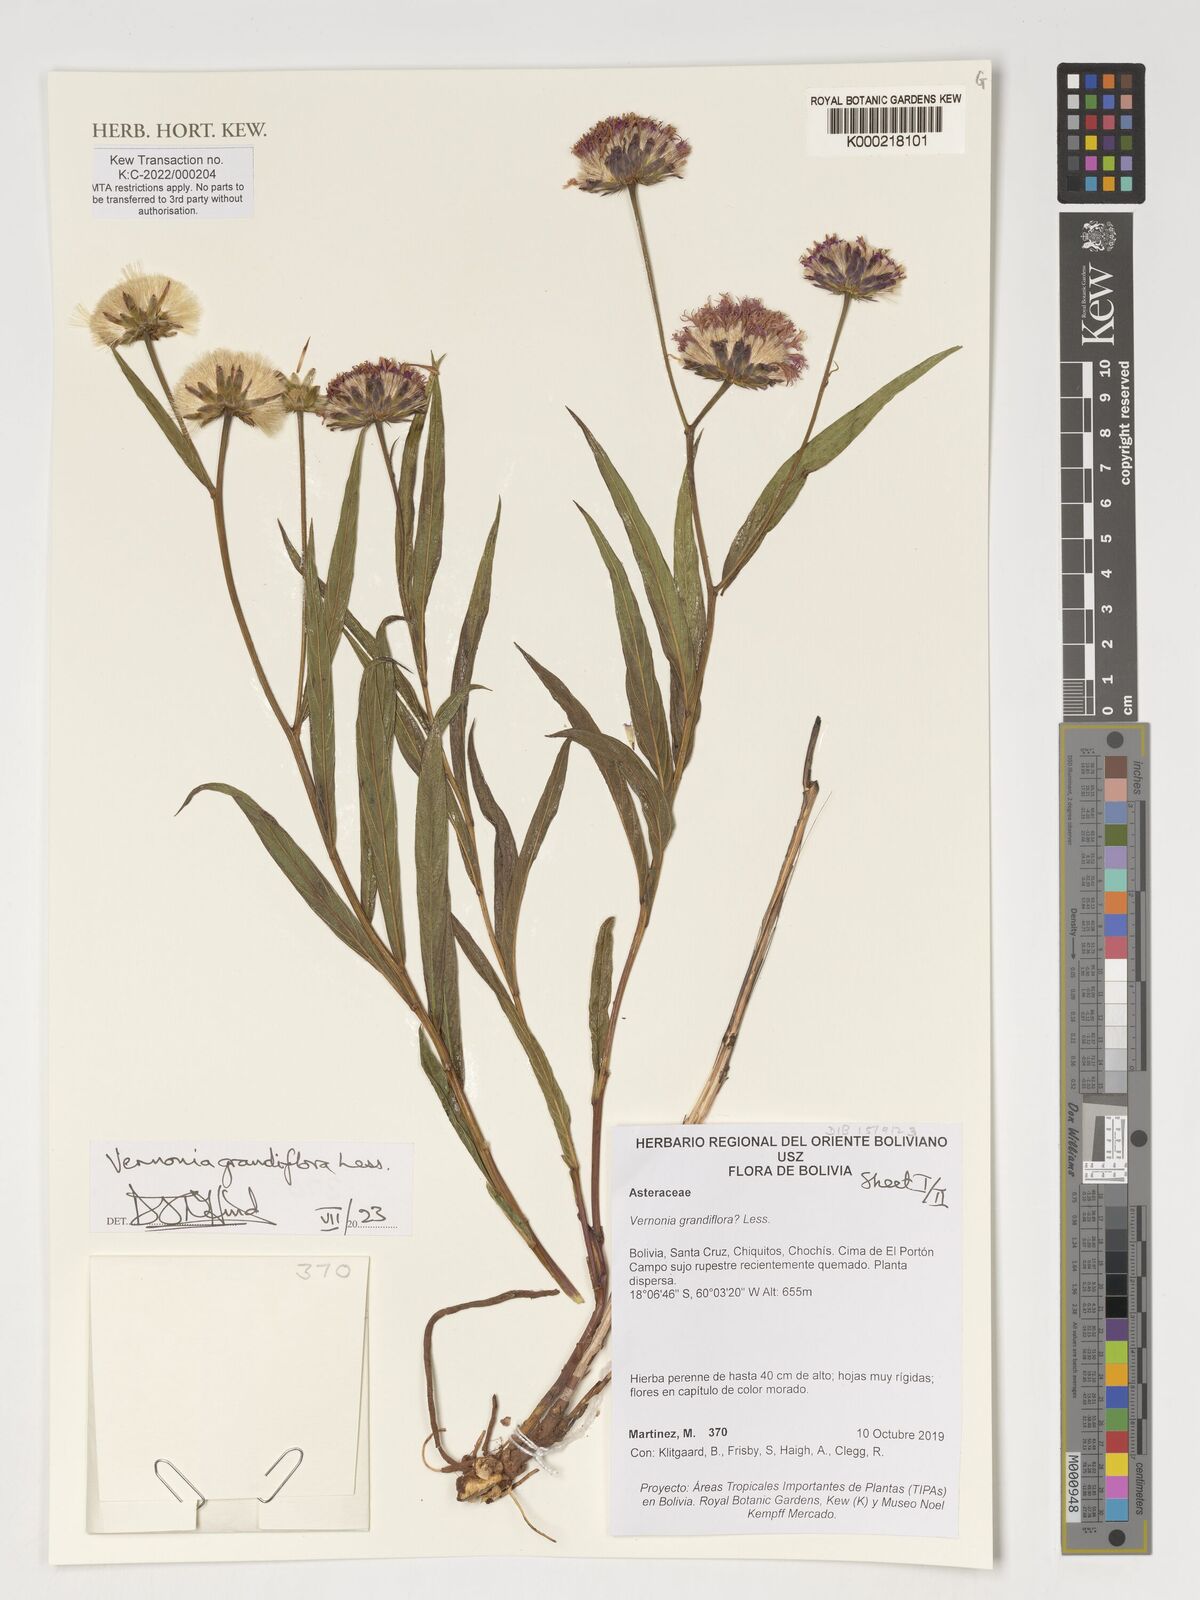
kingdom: Plantae
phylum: Tracheophyta
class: Magnoliopsida
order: Asterales
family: Asteraceae
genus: Lessingianthus
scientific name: Lessingianthus grandiflorus
